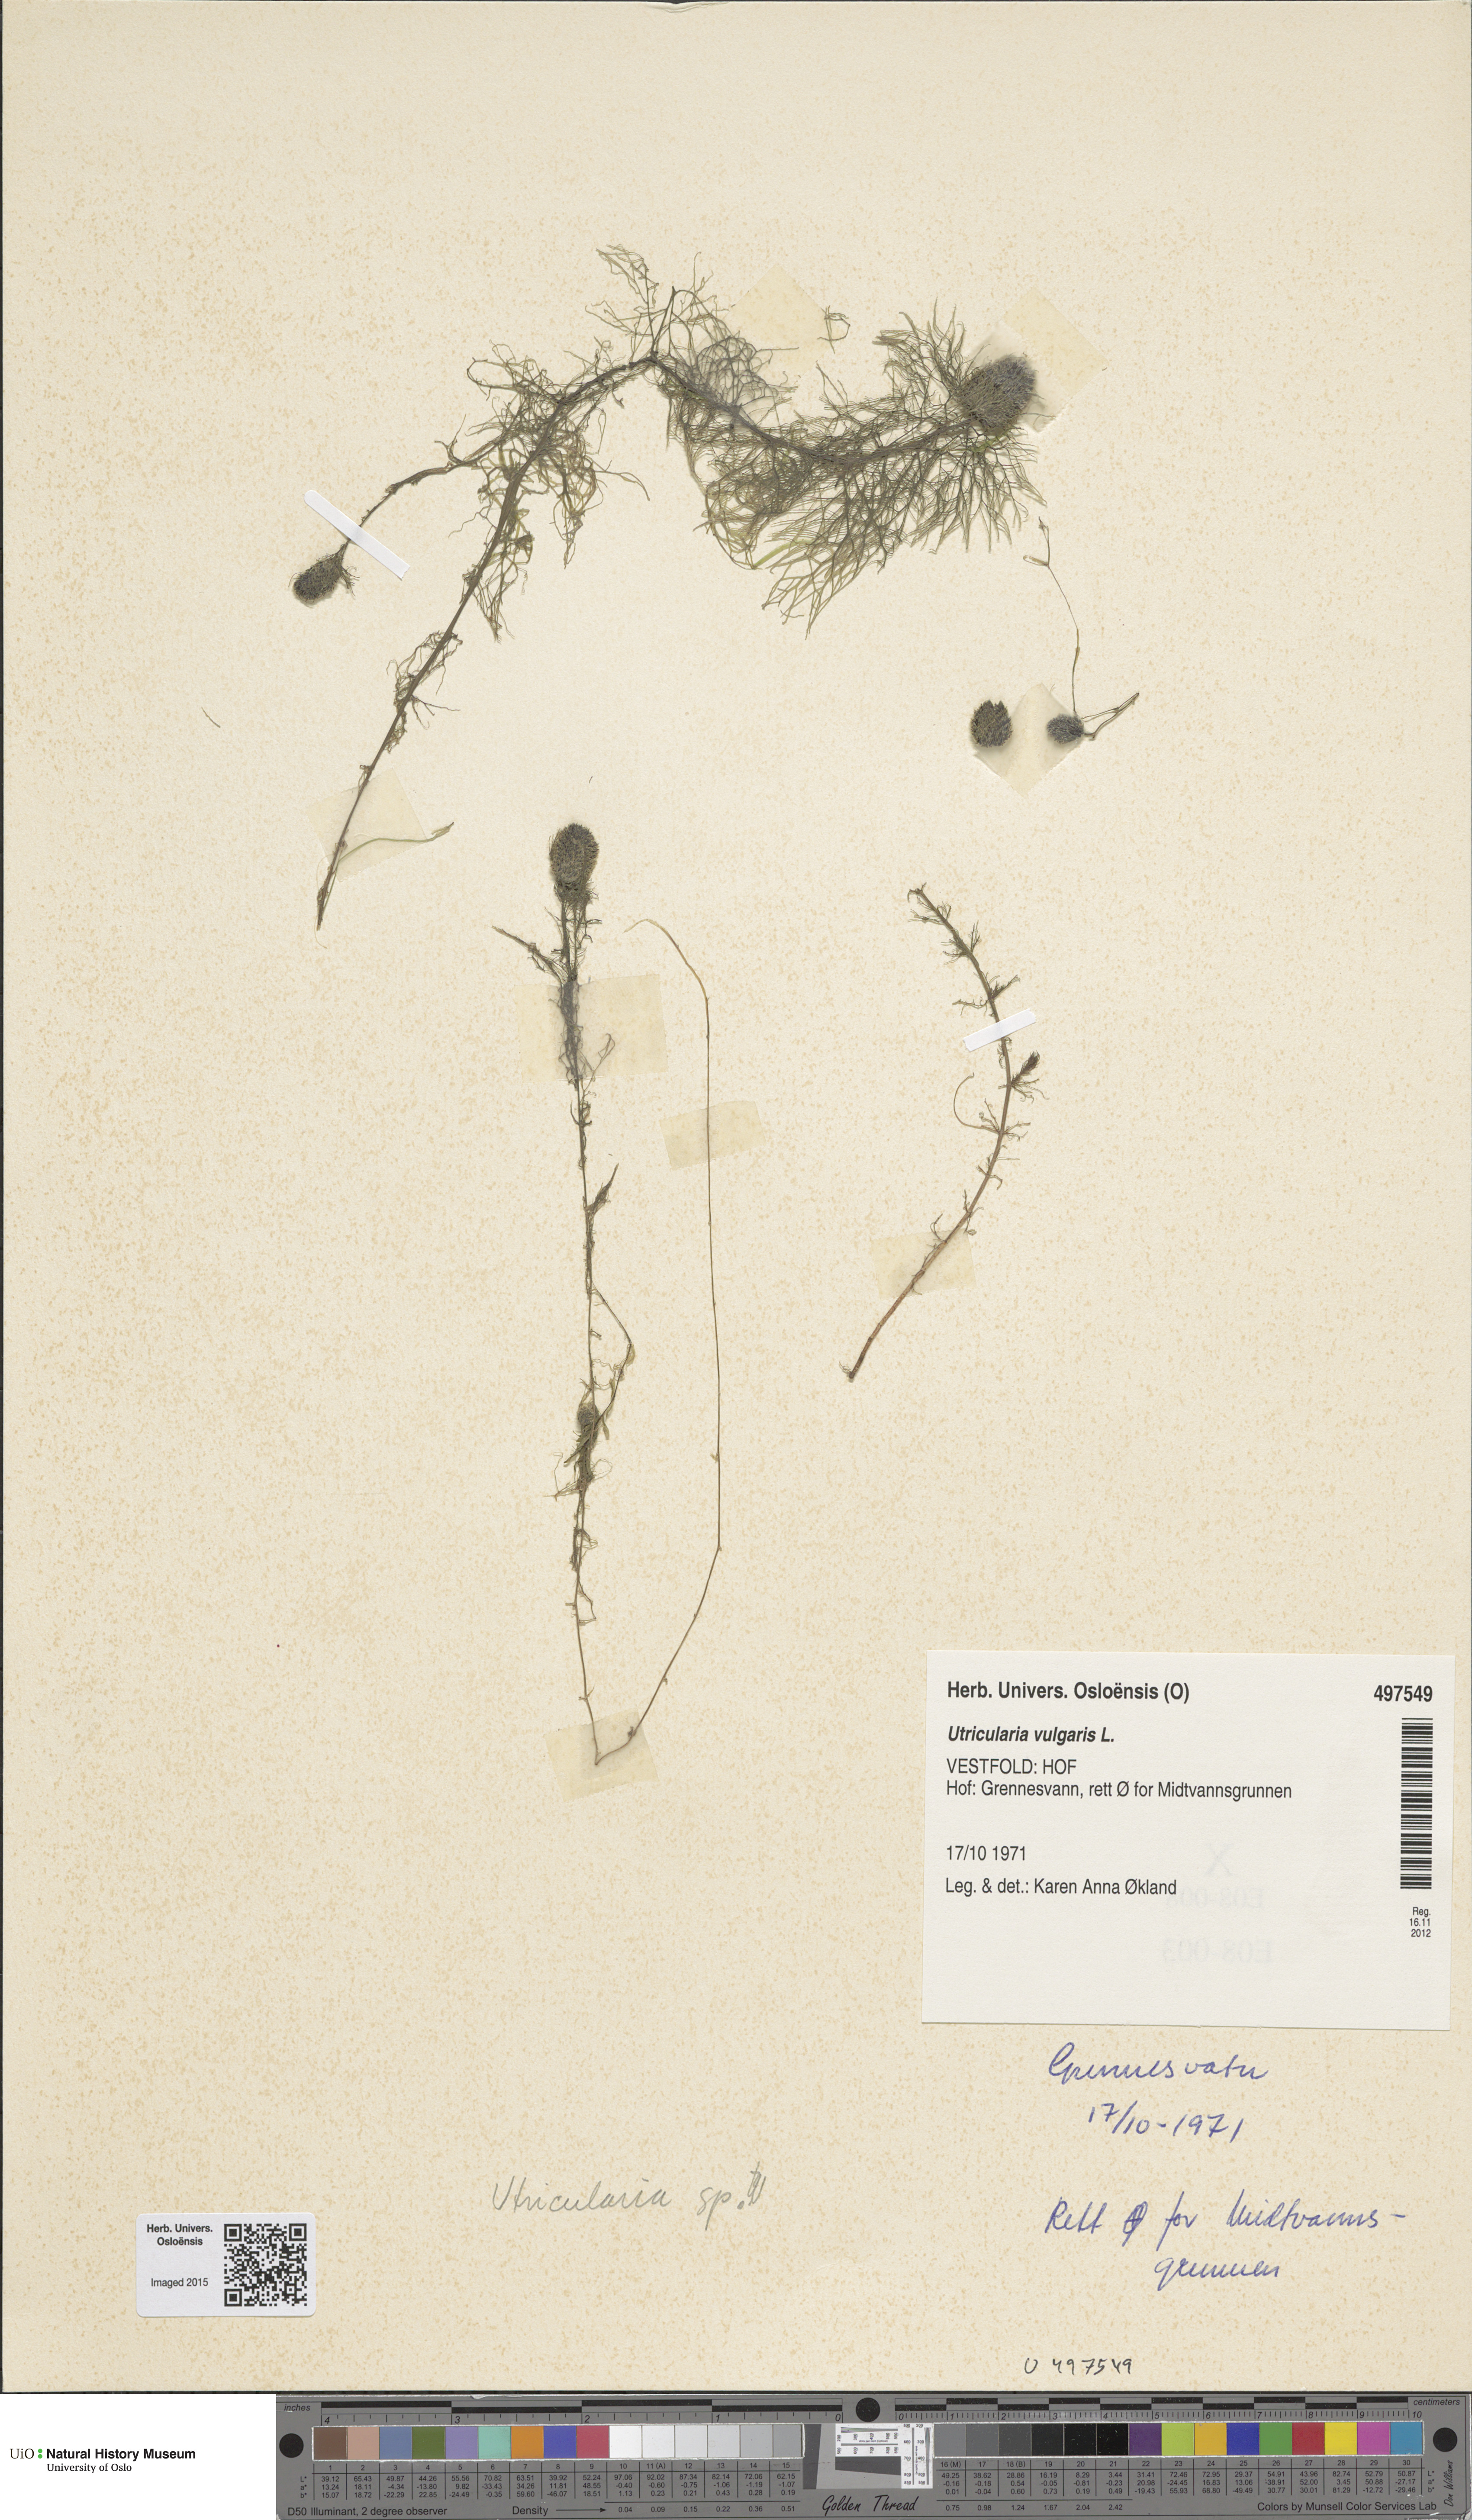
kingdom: Plantae
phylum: Tracheophyta
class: Magnoliopsida
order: Lamiales
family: Lentibulariaceae
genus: Utricularia
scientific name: Utricularia vulgaris
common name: Greater bladderwort
